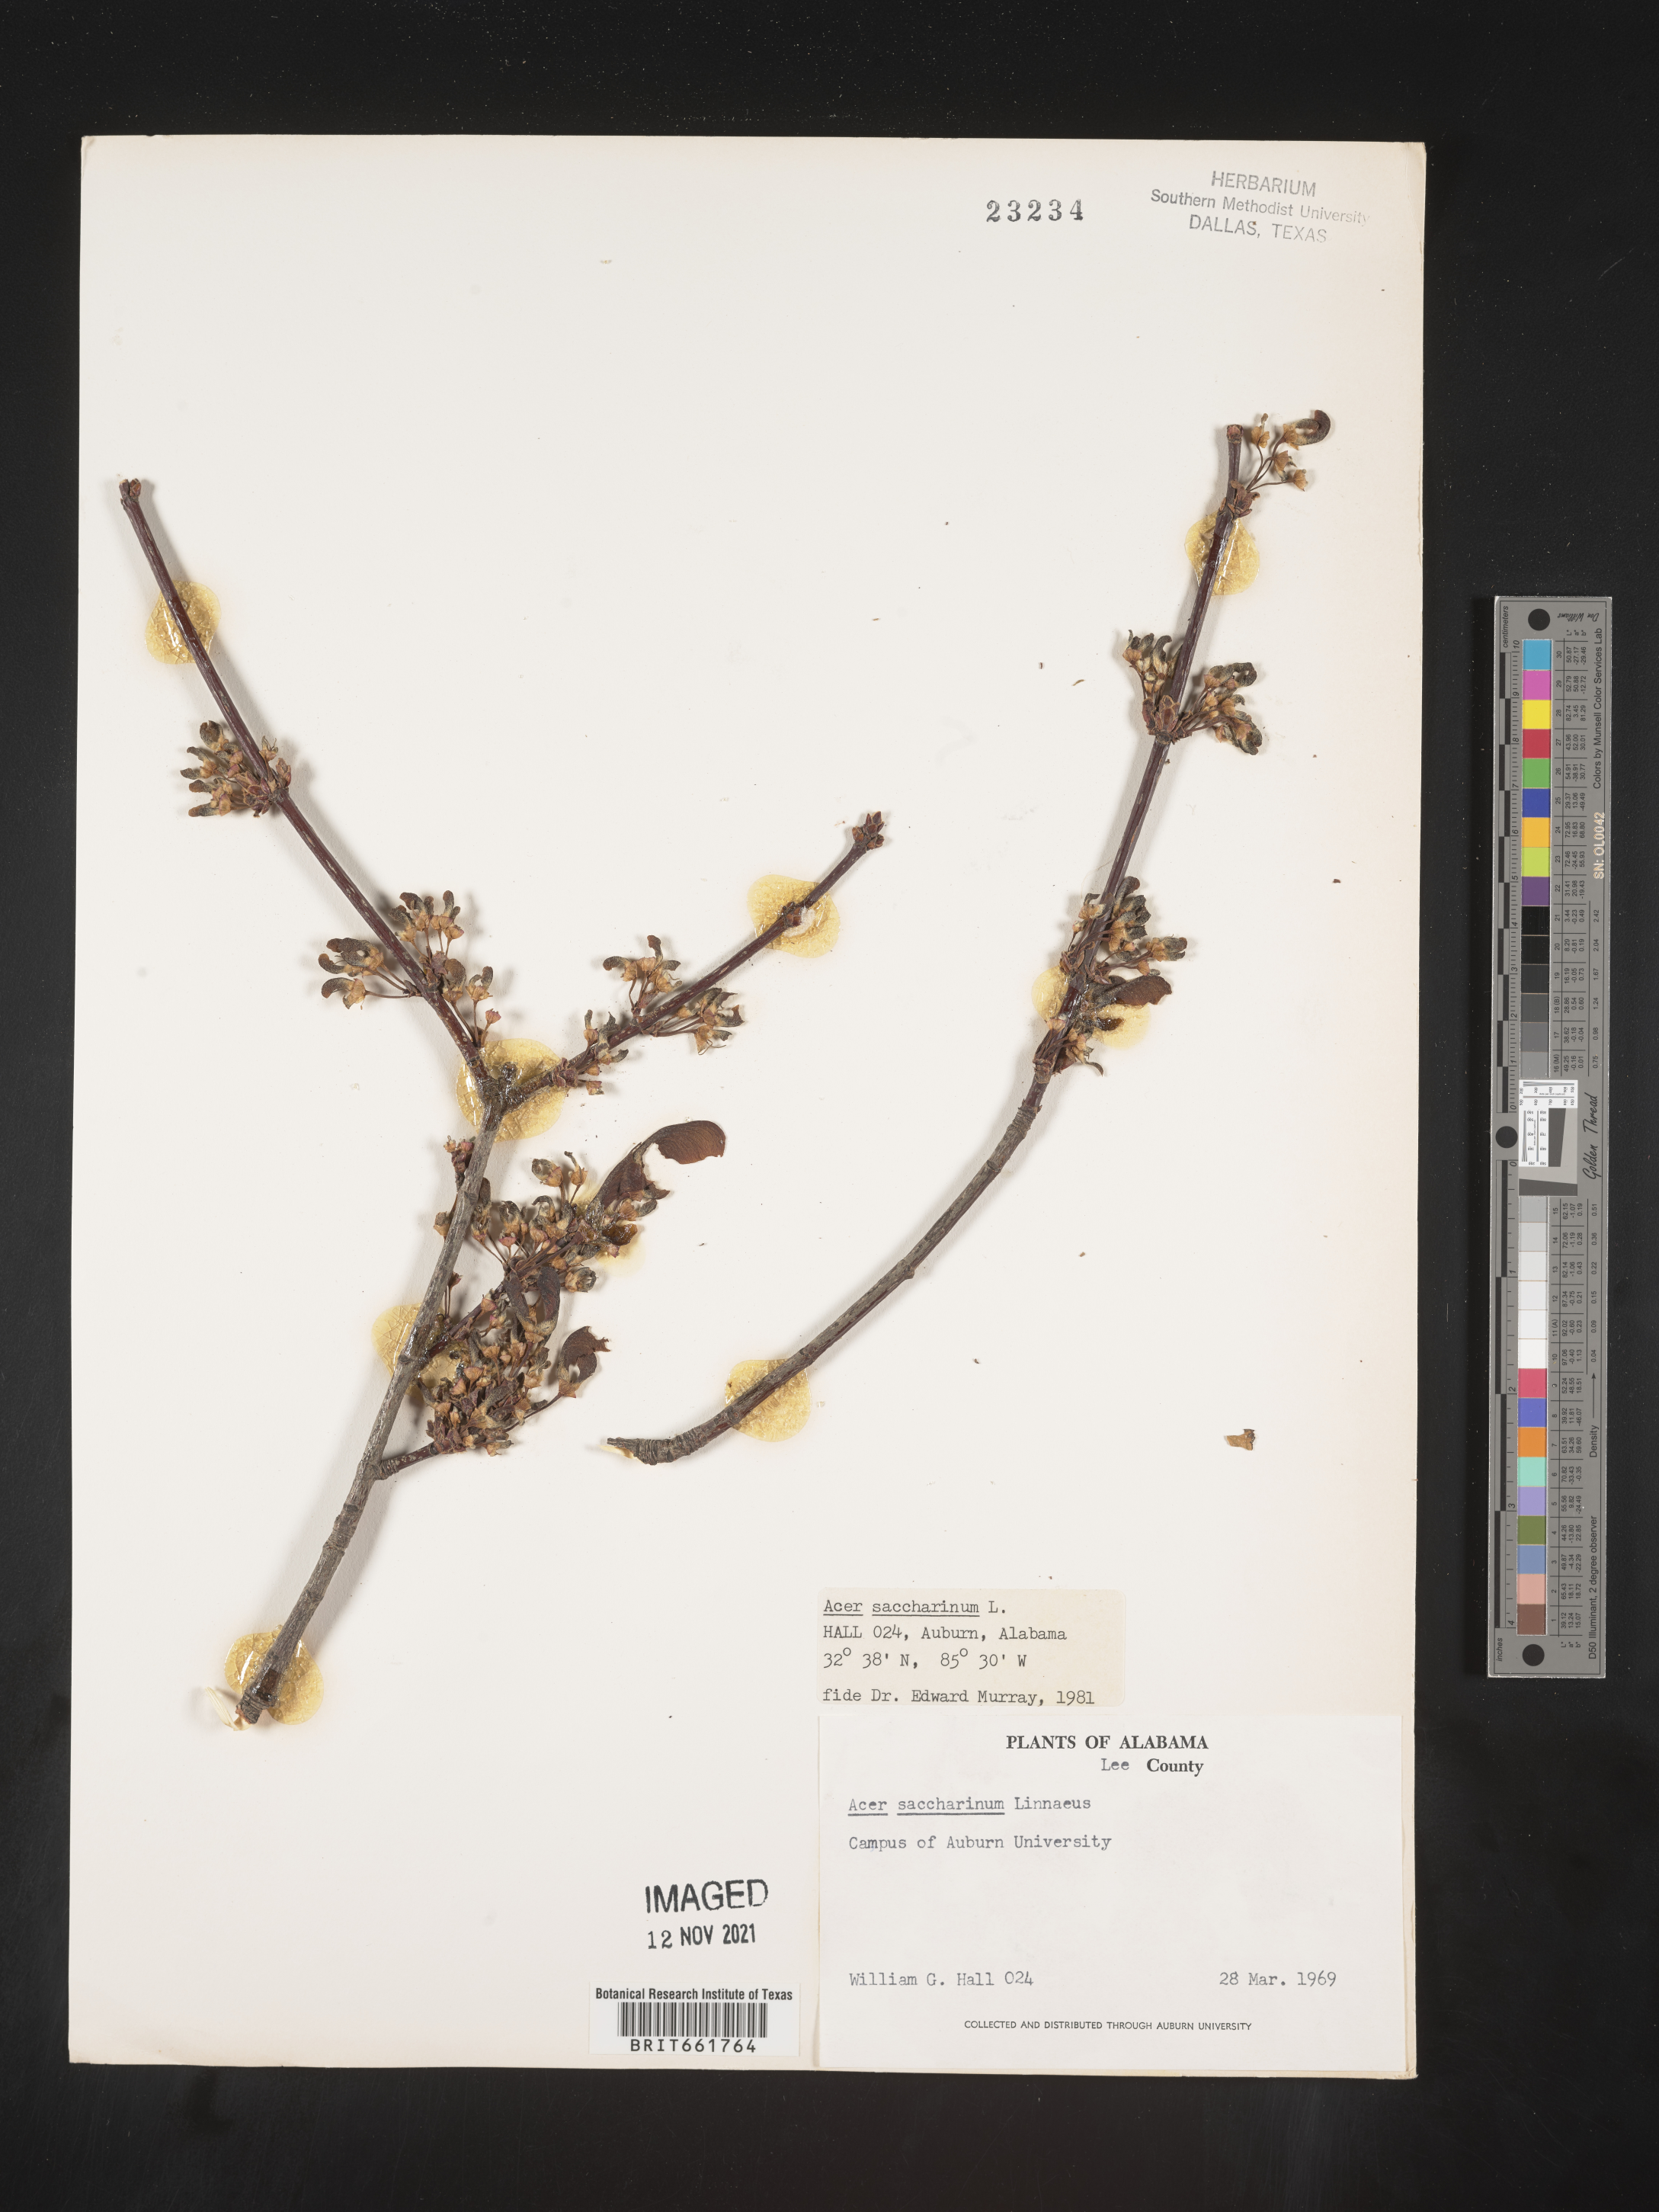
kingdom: Plantae
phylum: Tracheophyta
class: Magnoliopsida
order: Sapindales
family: Sapindaceae
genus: Acer
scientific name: Acer saccharinum
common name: Silver maple
